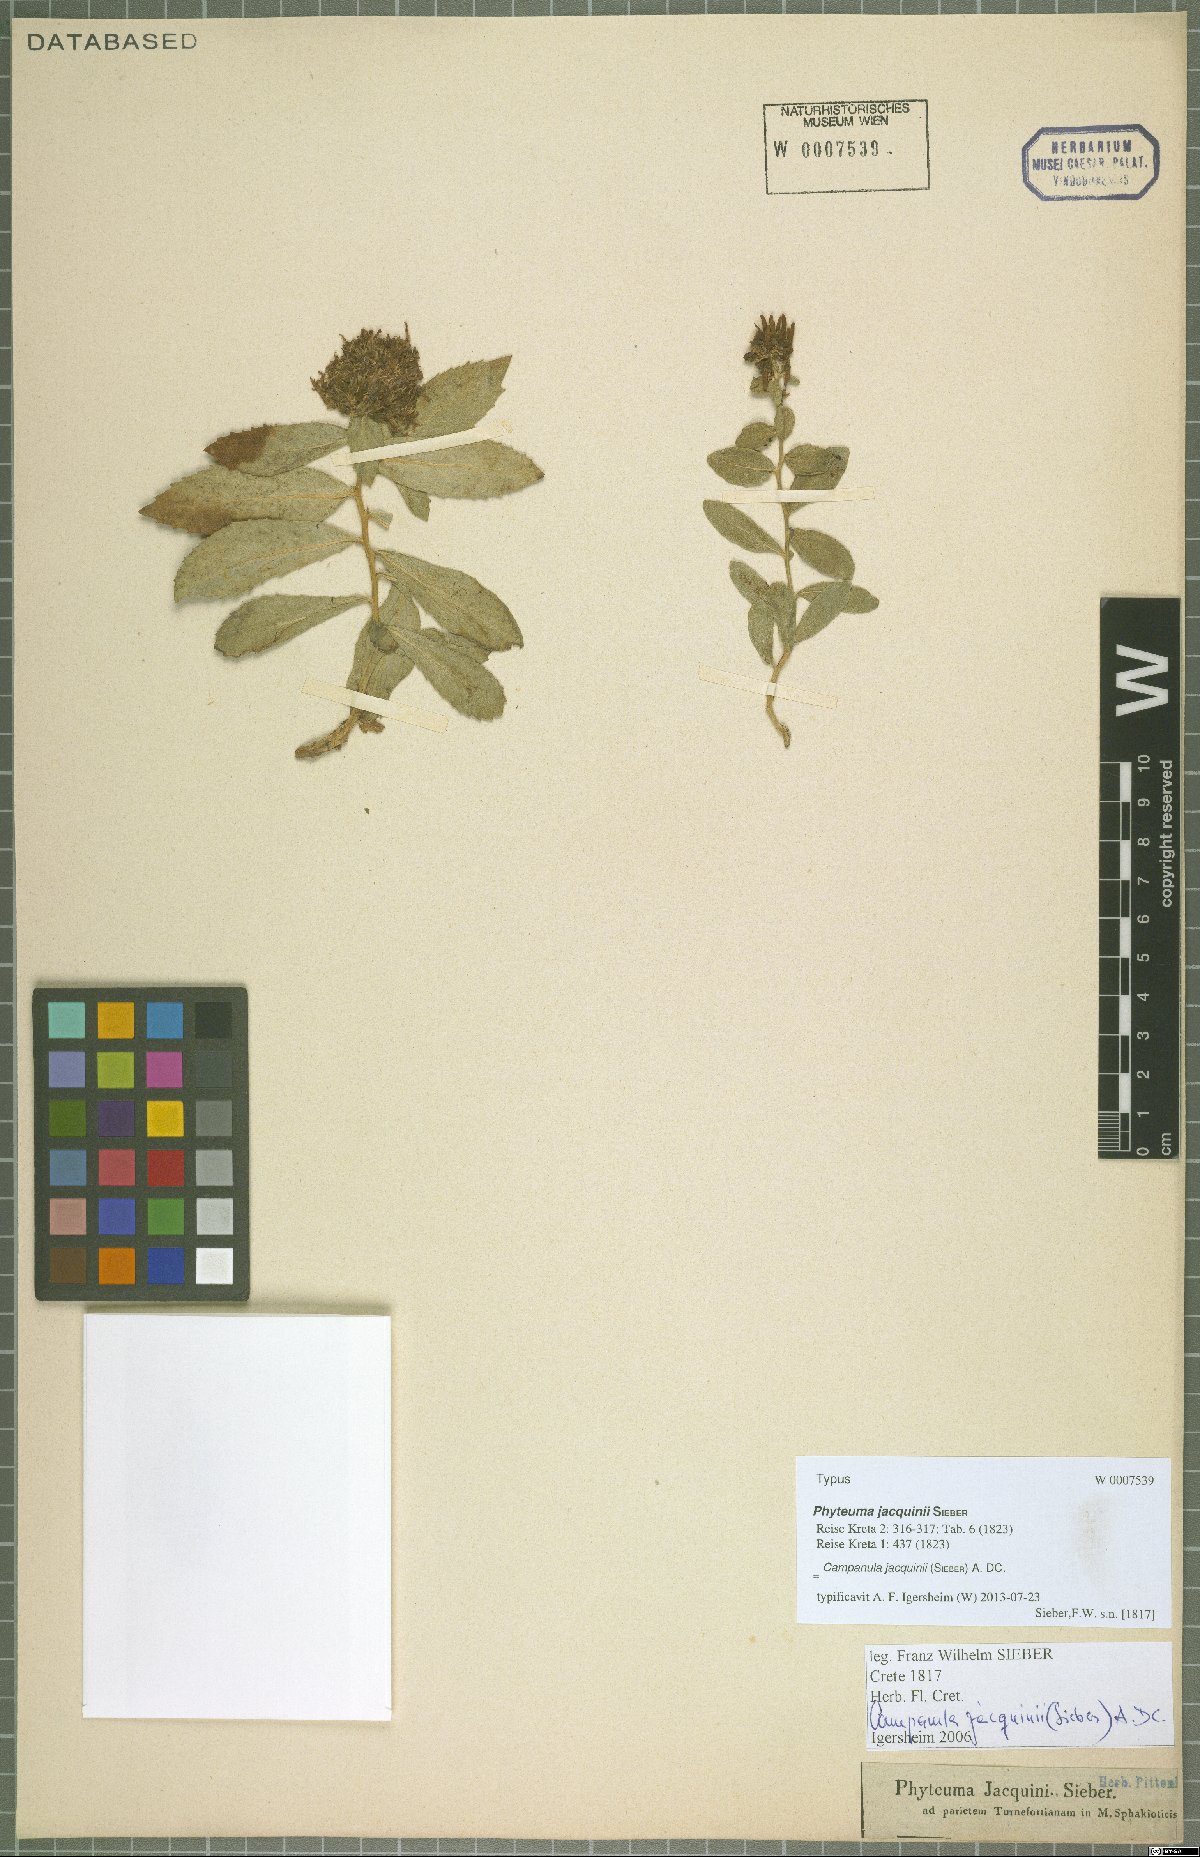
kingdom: Plantae
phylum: Tracheophyta
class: Magnoliopsida
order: Asterales
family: Campanulaceae
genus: Campanula
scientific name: Campanula jacquinii
